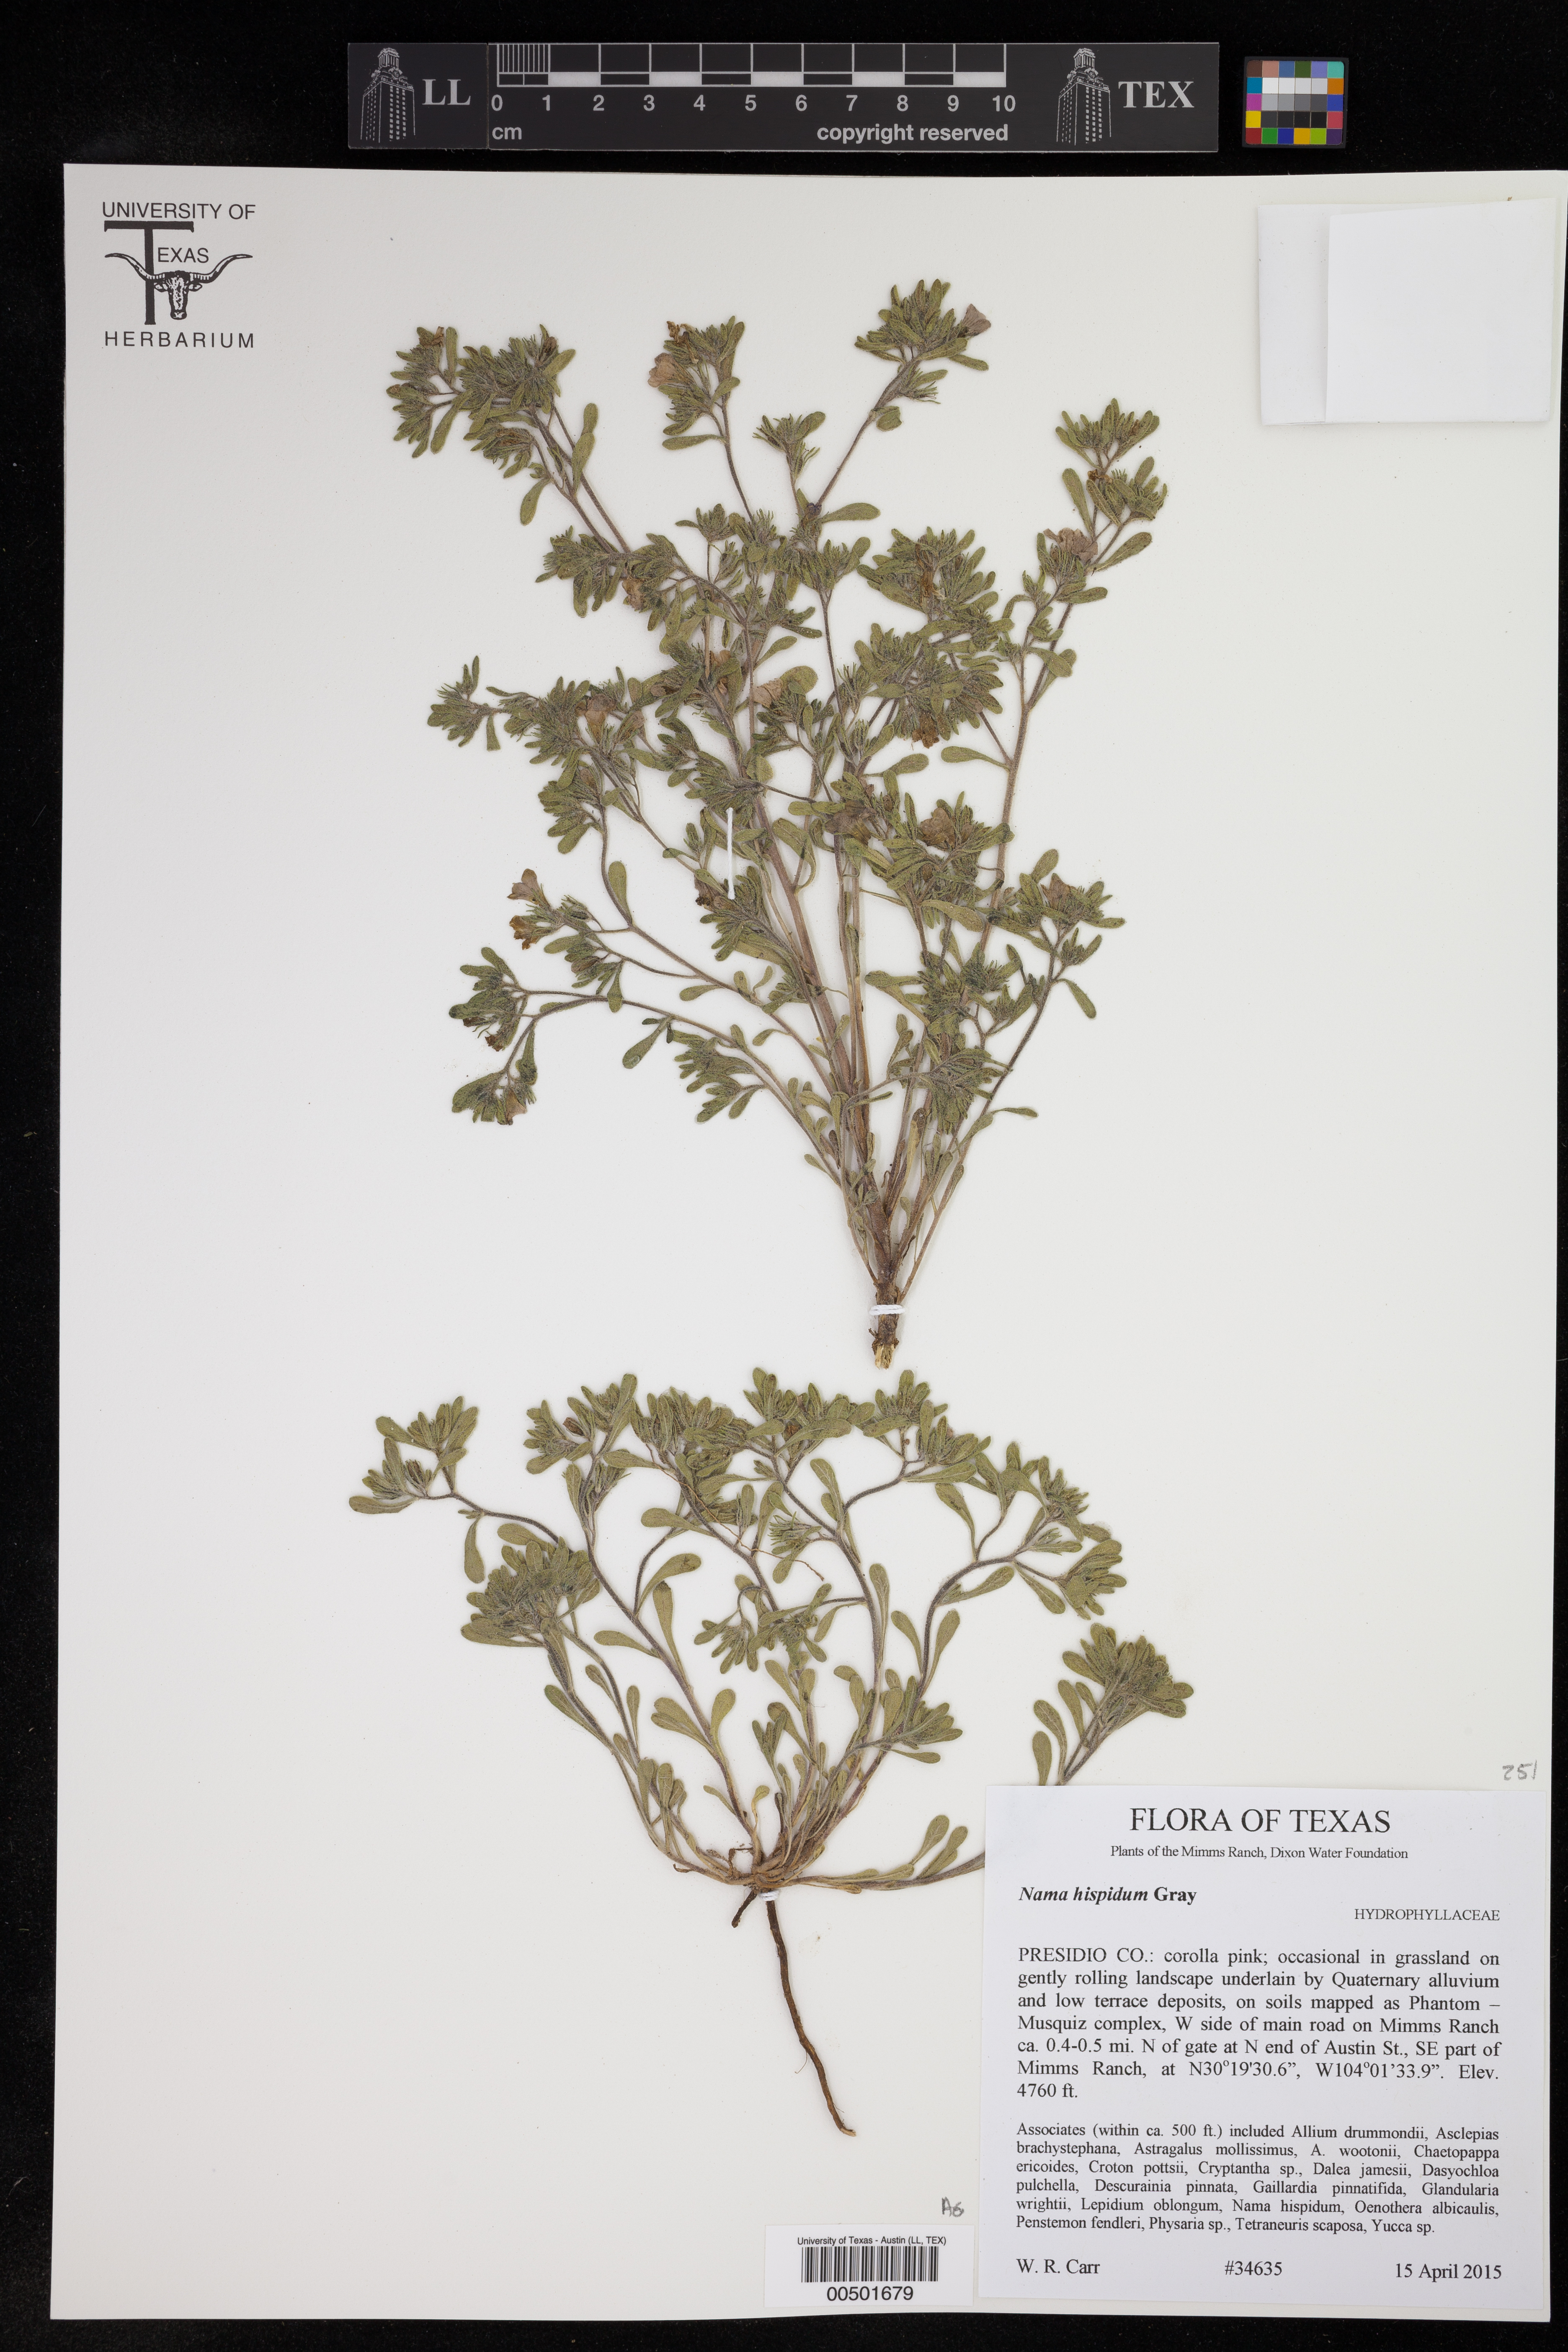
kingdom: Plantae
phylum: Tracheophyta
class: Magnoliopsida
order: Boraginales
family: Namaceae
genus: Nama
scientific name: Nama hispida
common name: Bristly nama
